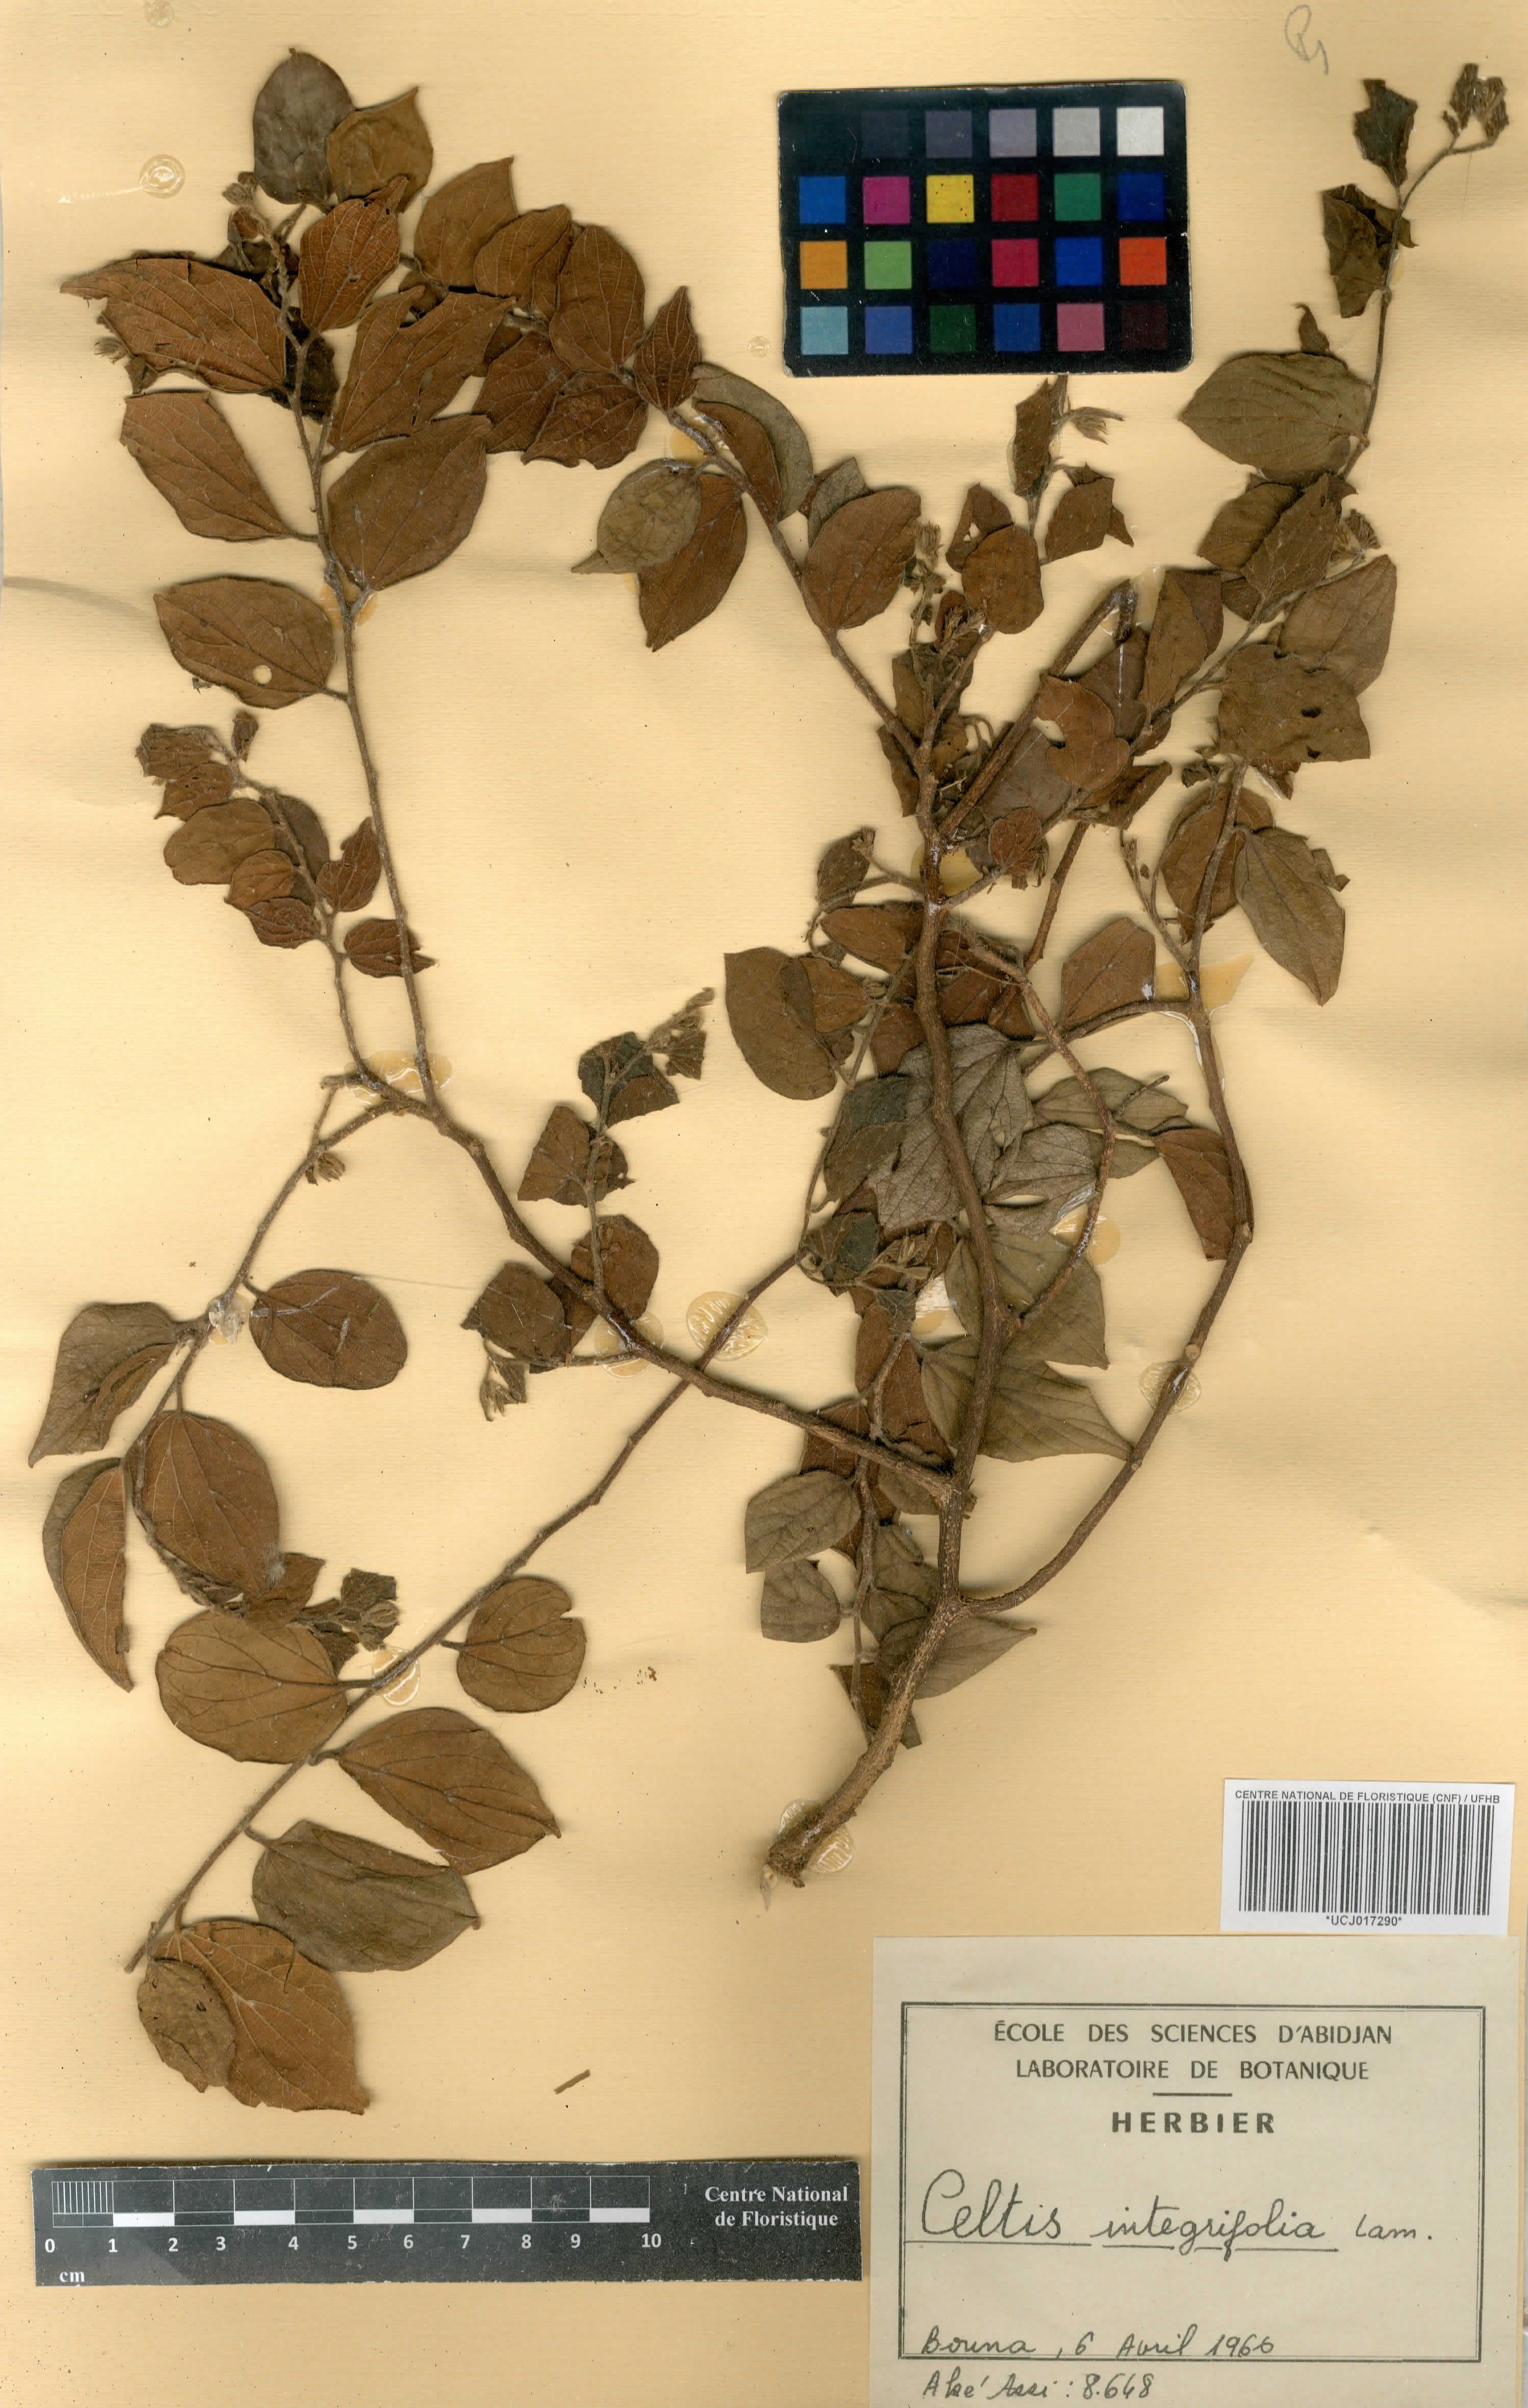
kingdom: Plantae
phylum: Tracheophyta
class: Magnoliopsida
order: Rosales
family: Cannabaceae
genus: Celtis
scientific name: Celtis toka
